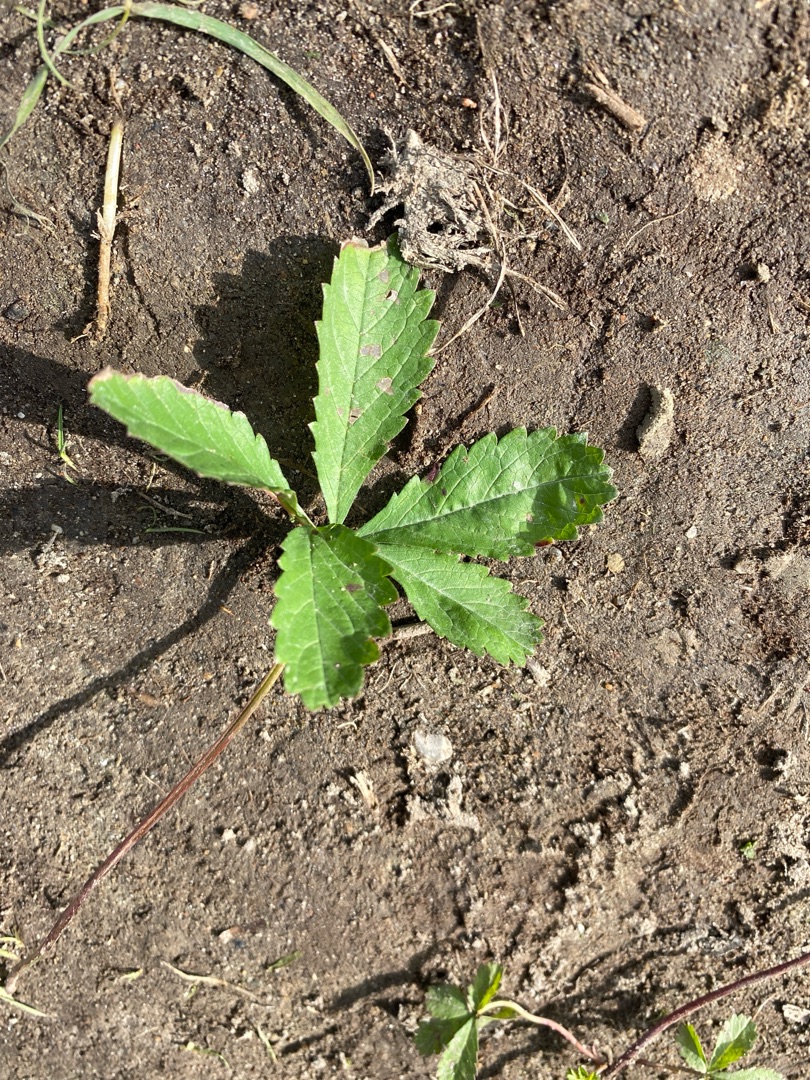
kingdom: Plantae
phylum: Tracheophyta
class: Magnoliopsida
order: Rosales
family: Rosaceae
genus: Potentilla
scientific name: Potentilla reptans
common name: Krybende potentil
